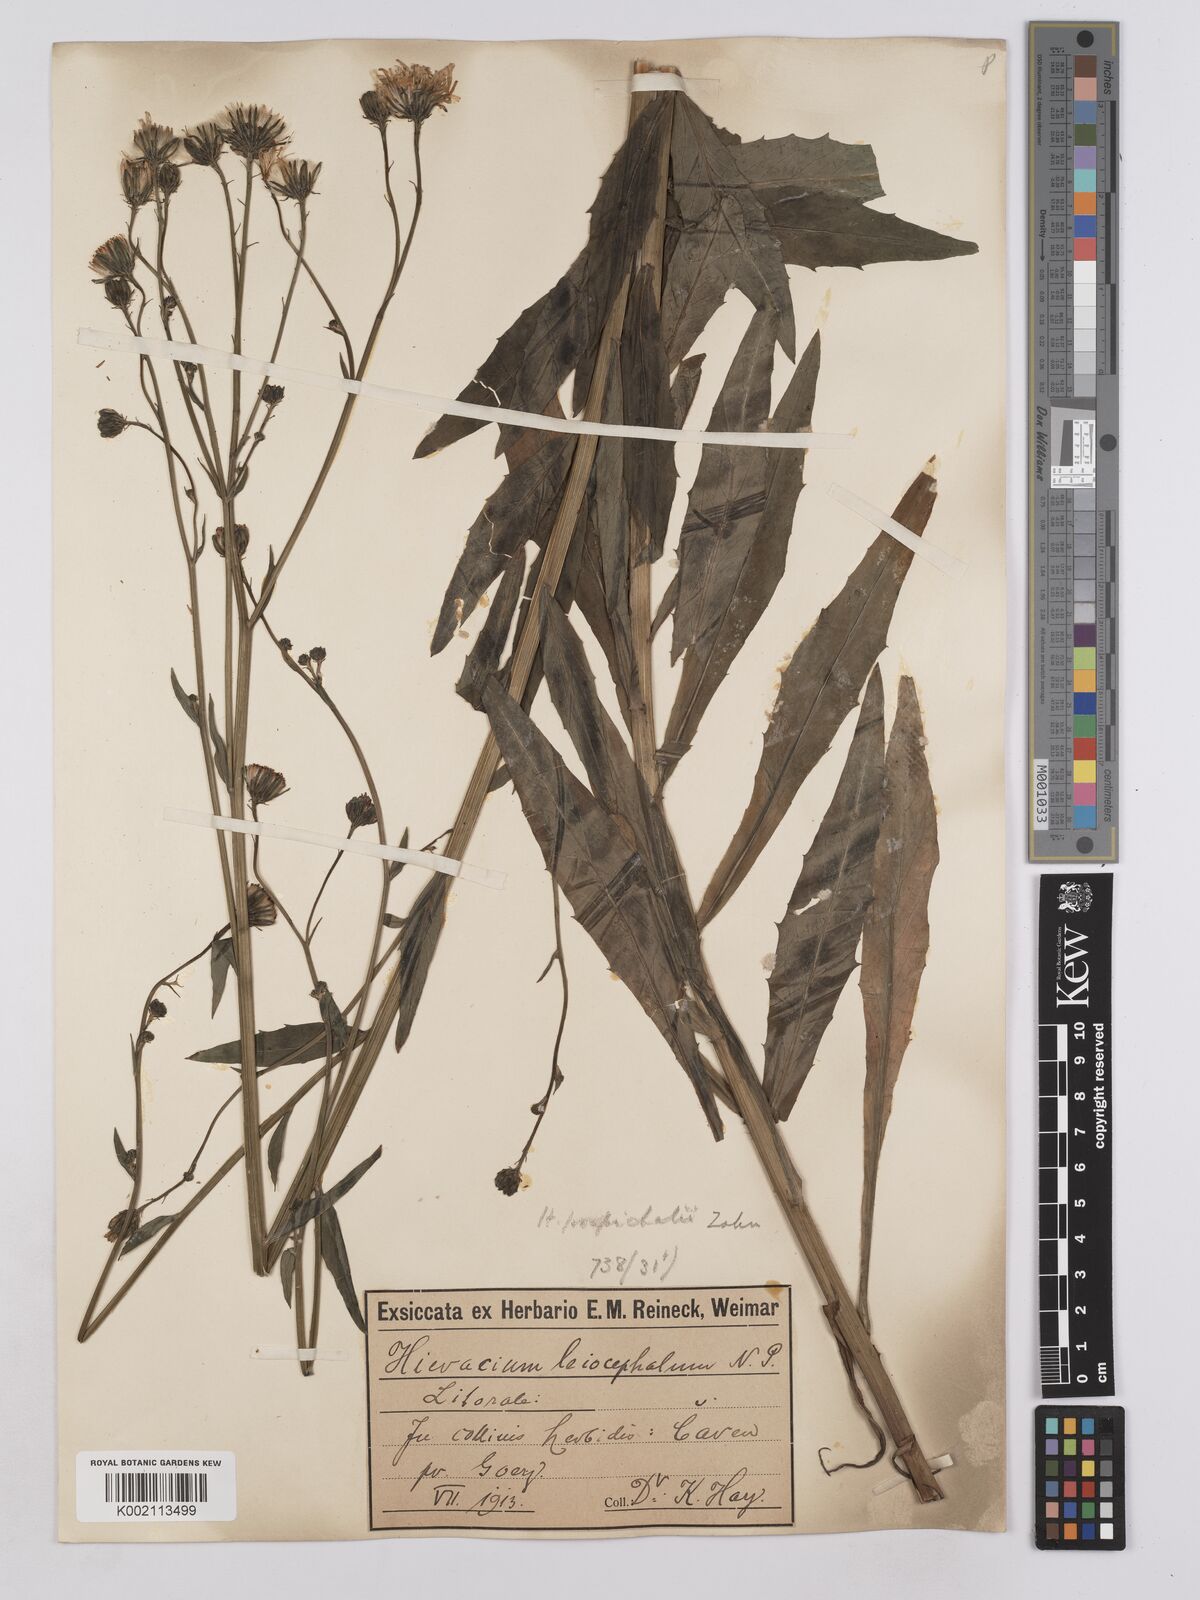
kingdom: Plantae
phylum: Tracheophyta
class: Magnoliopsida
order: Asterales
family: Asteraceae
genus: Hieracium
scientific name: Hieracium leiocephalum
